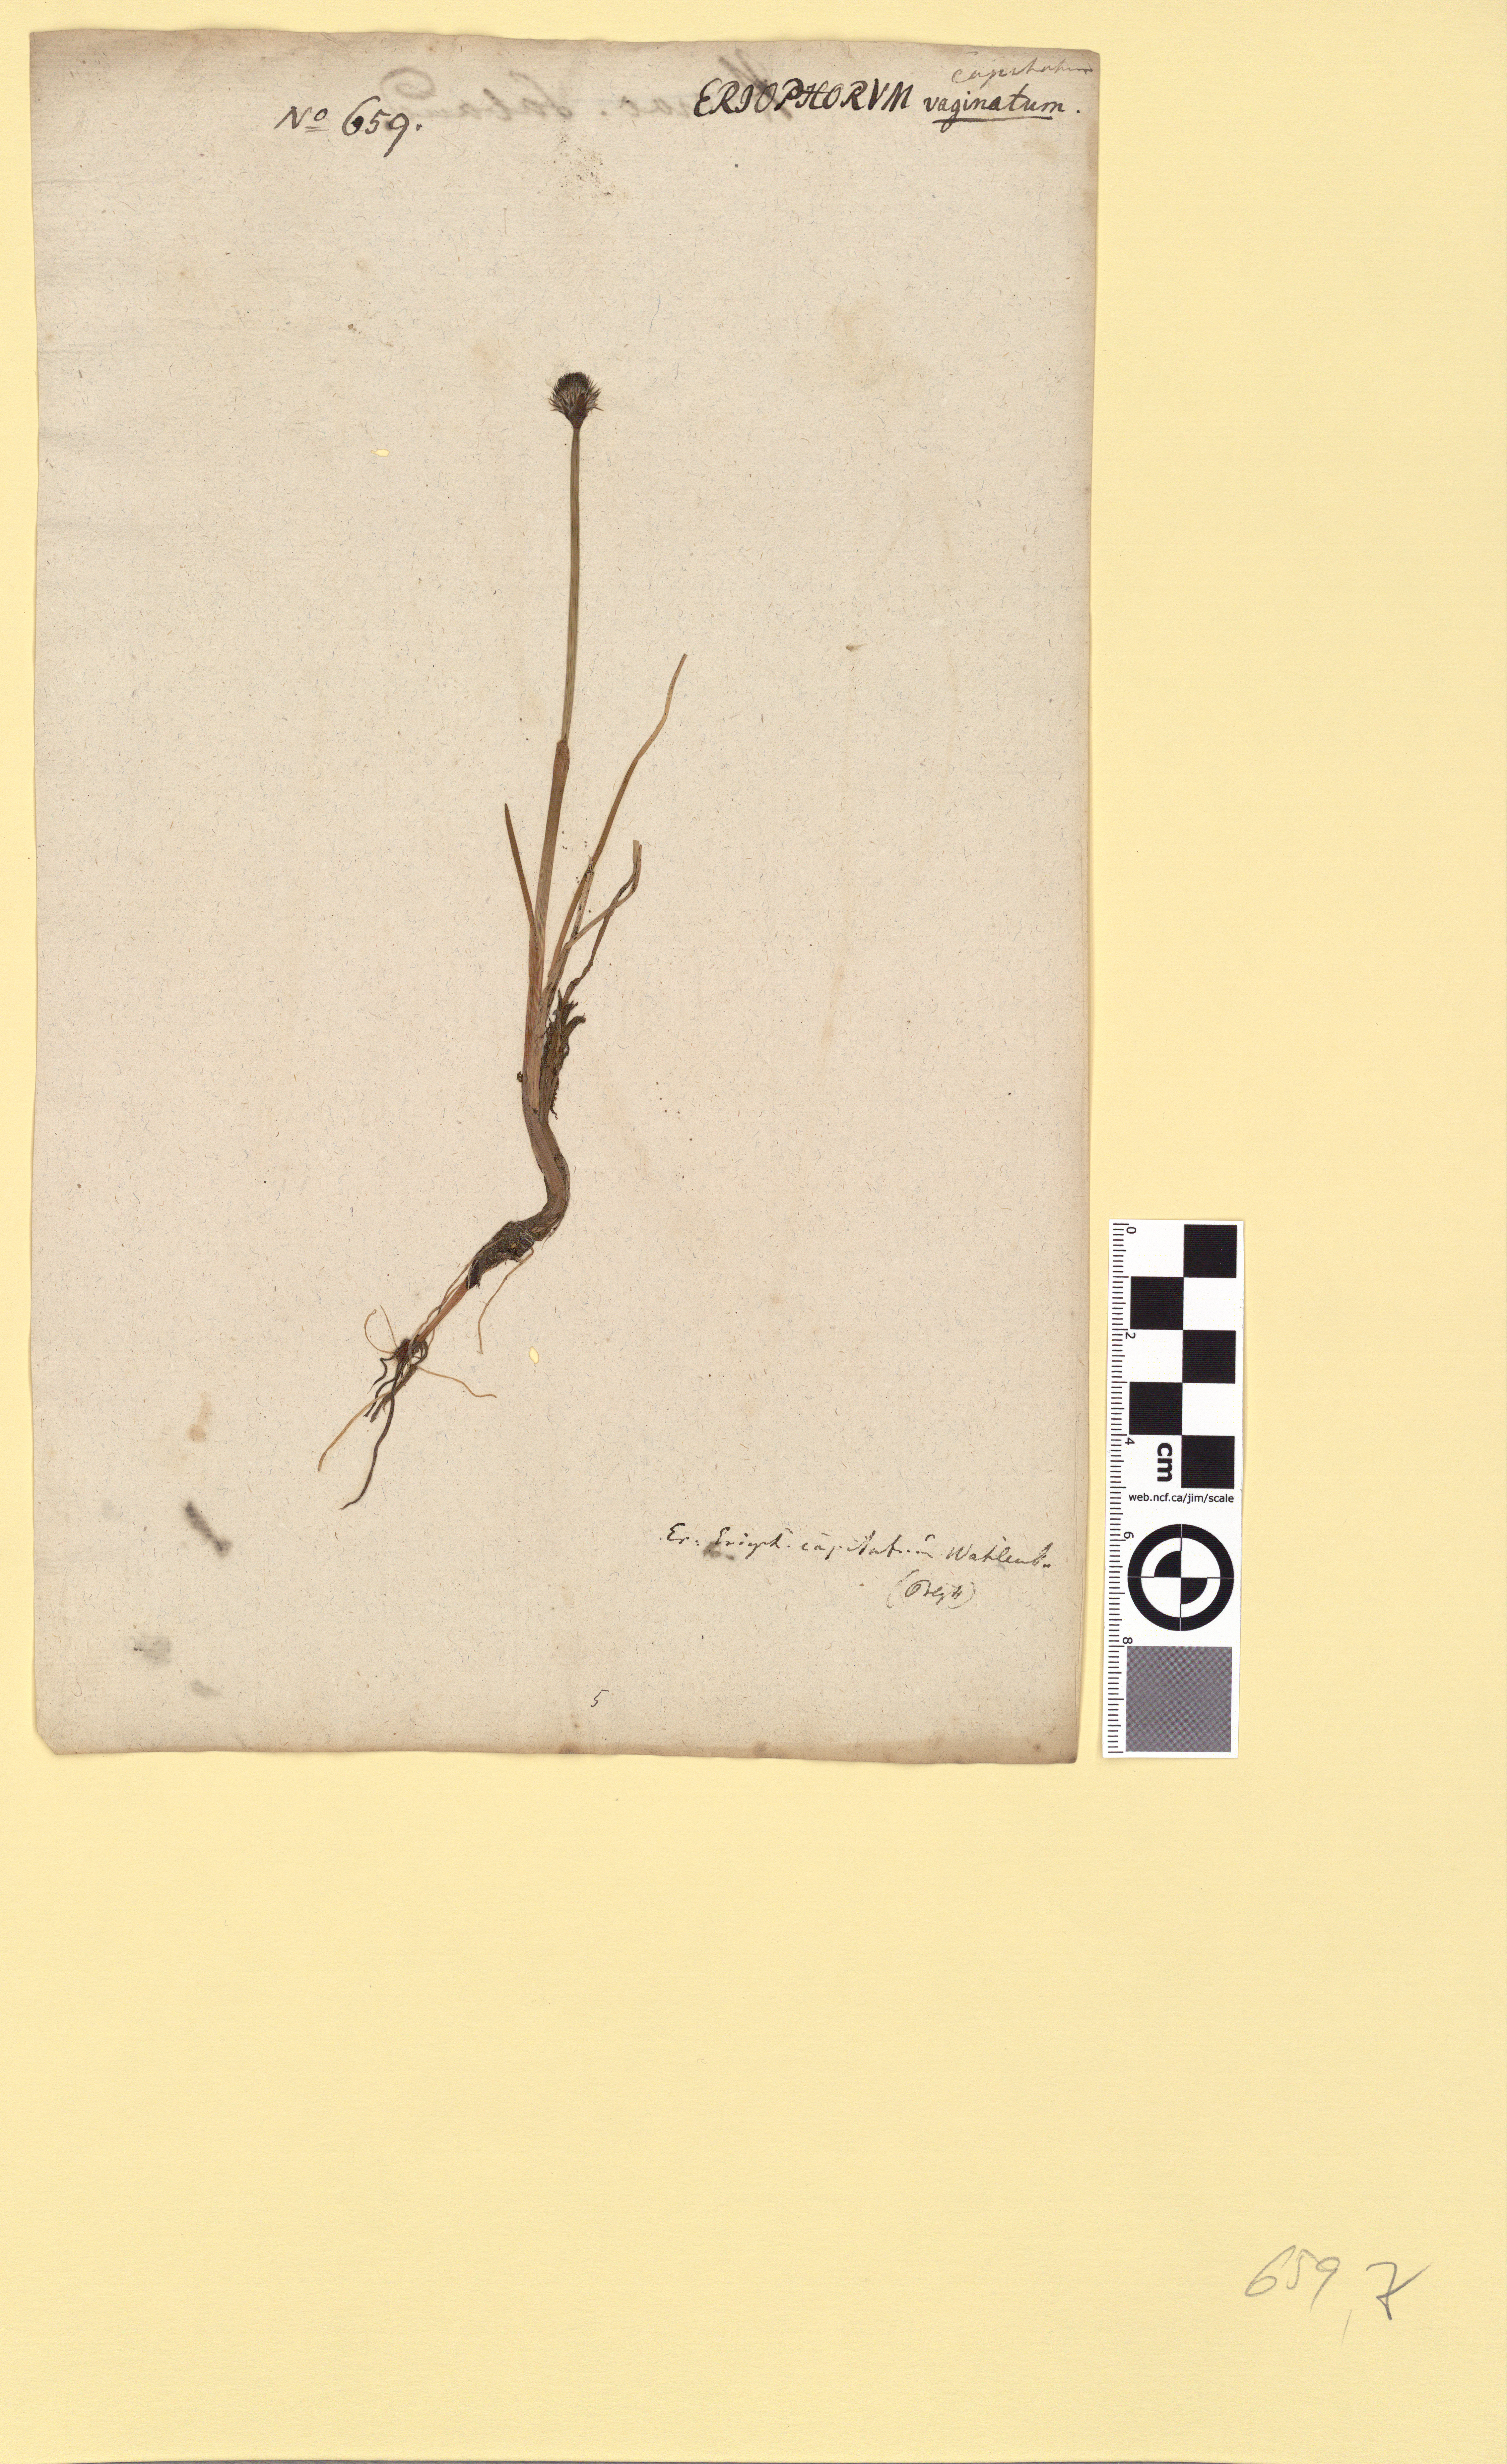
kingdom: Plantae
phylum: Tracheophyta
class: Liliopsida
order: Poales
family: Cyperaceae
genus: Eriophorum
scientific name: Eriophorum scheuchzeri
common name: Scheuchzer's cottongrass
